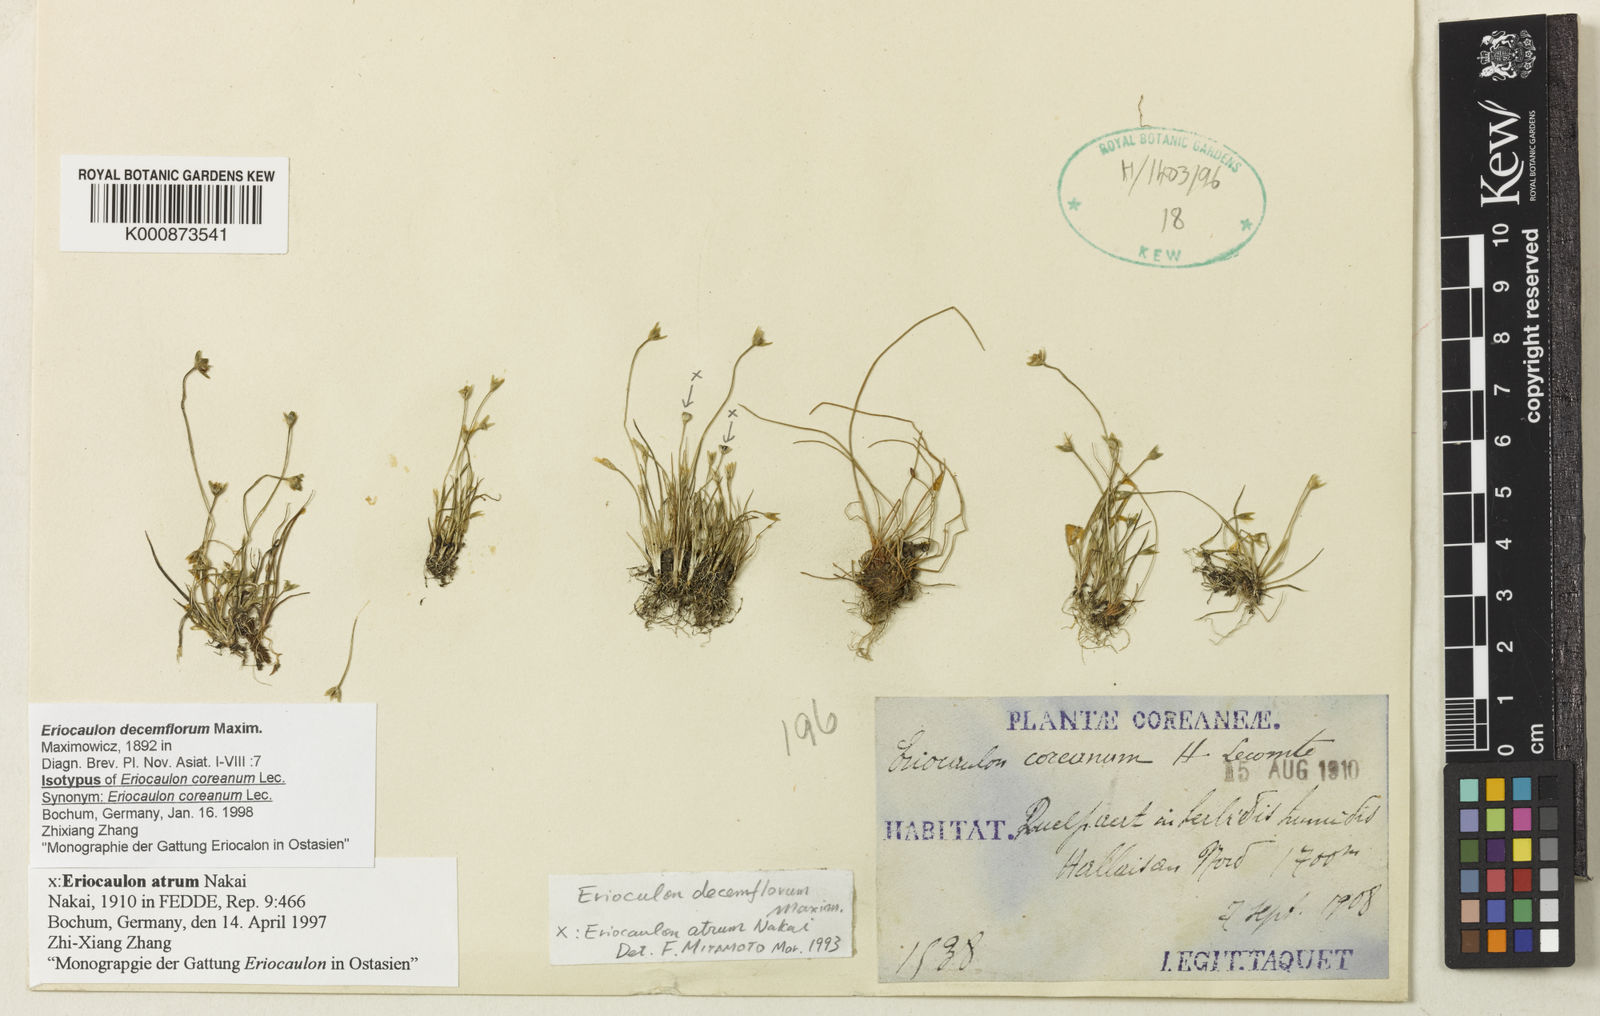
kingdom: Plantae
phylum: Tracheophyta
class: Liliopsida
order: Poales
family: Eriocaulaceae
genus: Eriocaulon
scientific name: Eriocaulon decemflorum
